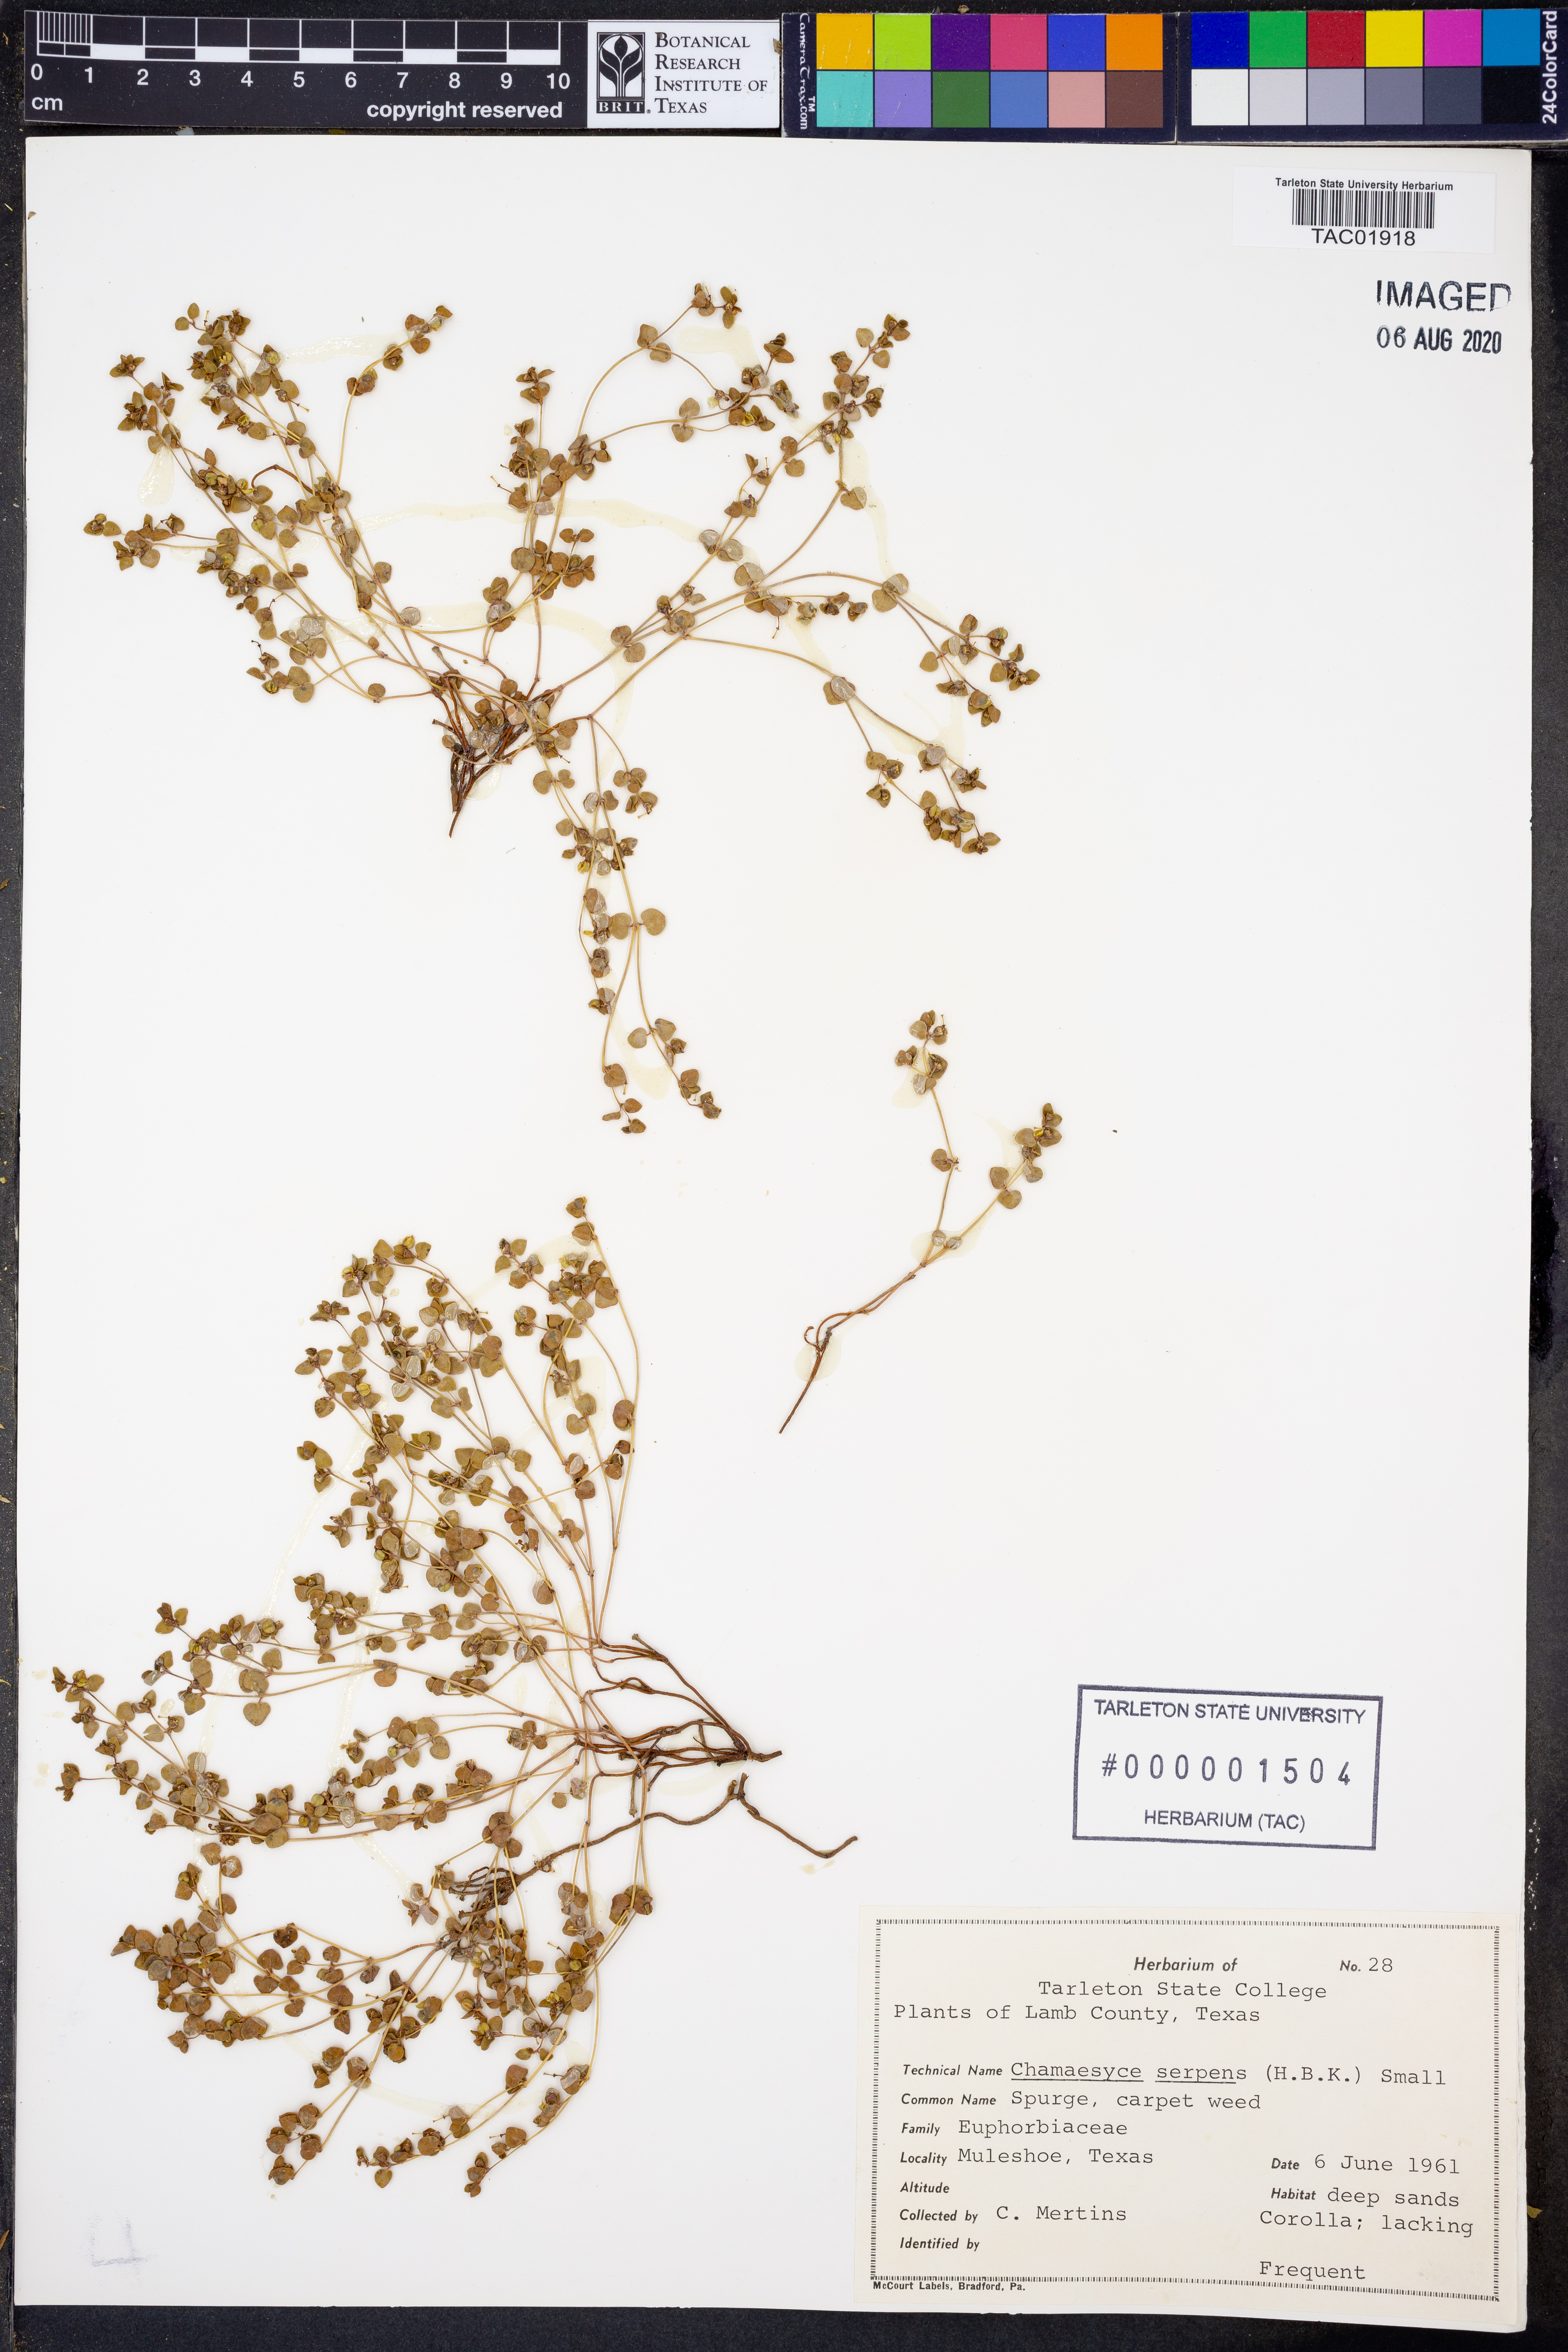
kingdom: Plantae
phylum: Tracheophyta
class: Magnoliopsida
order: Malpighiales
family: Euphorbiaceae
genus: Euphorbia
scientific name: Euphorbia serpens
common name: Matted sandmat
